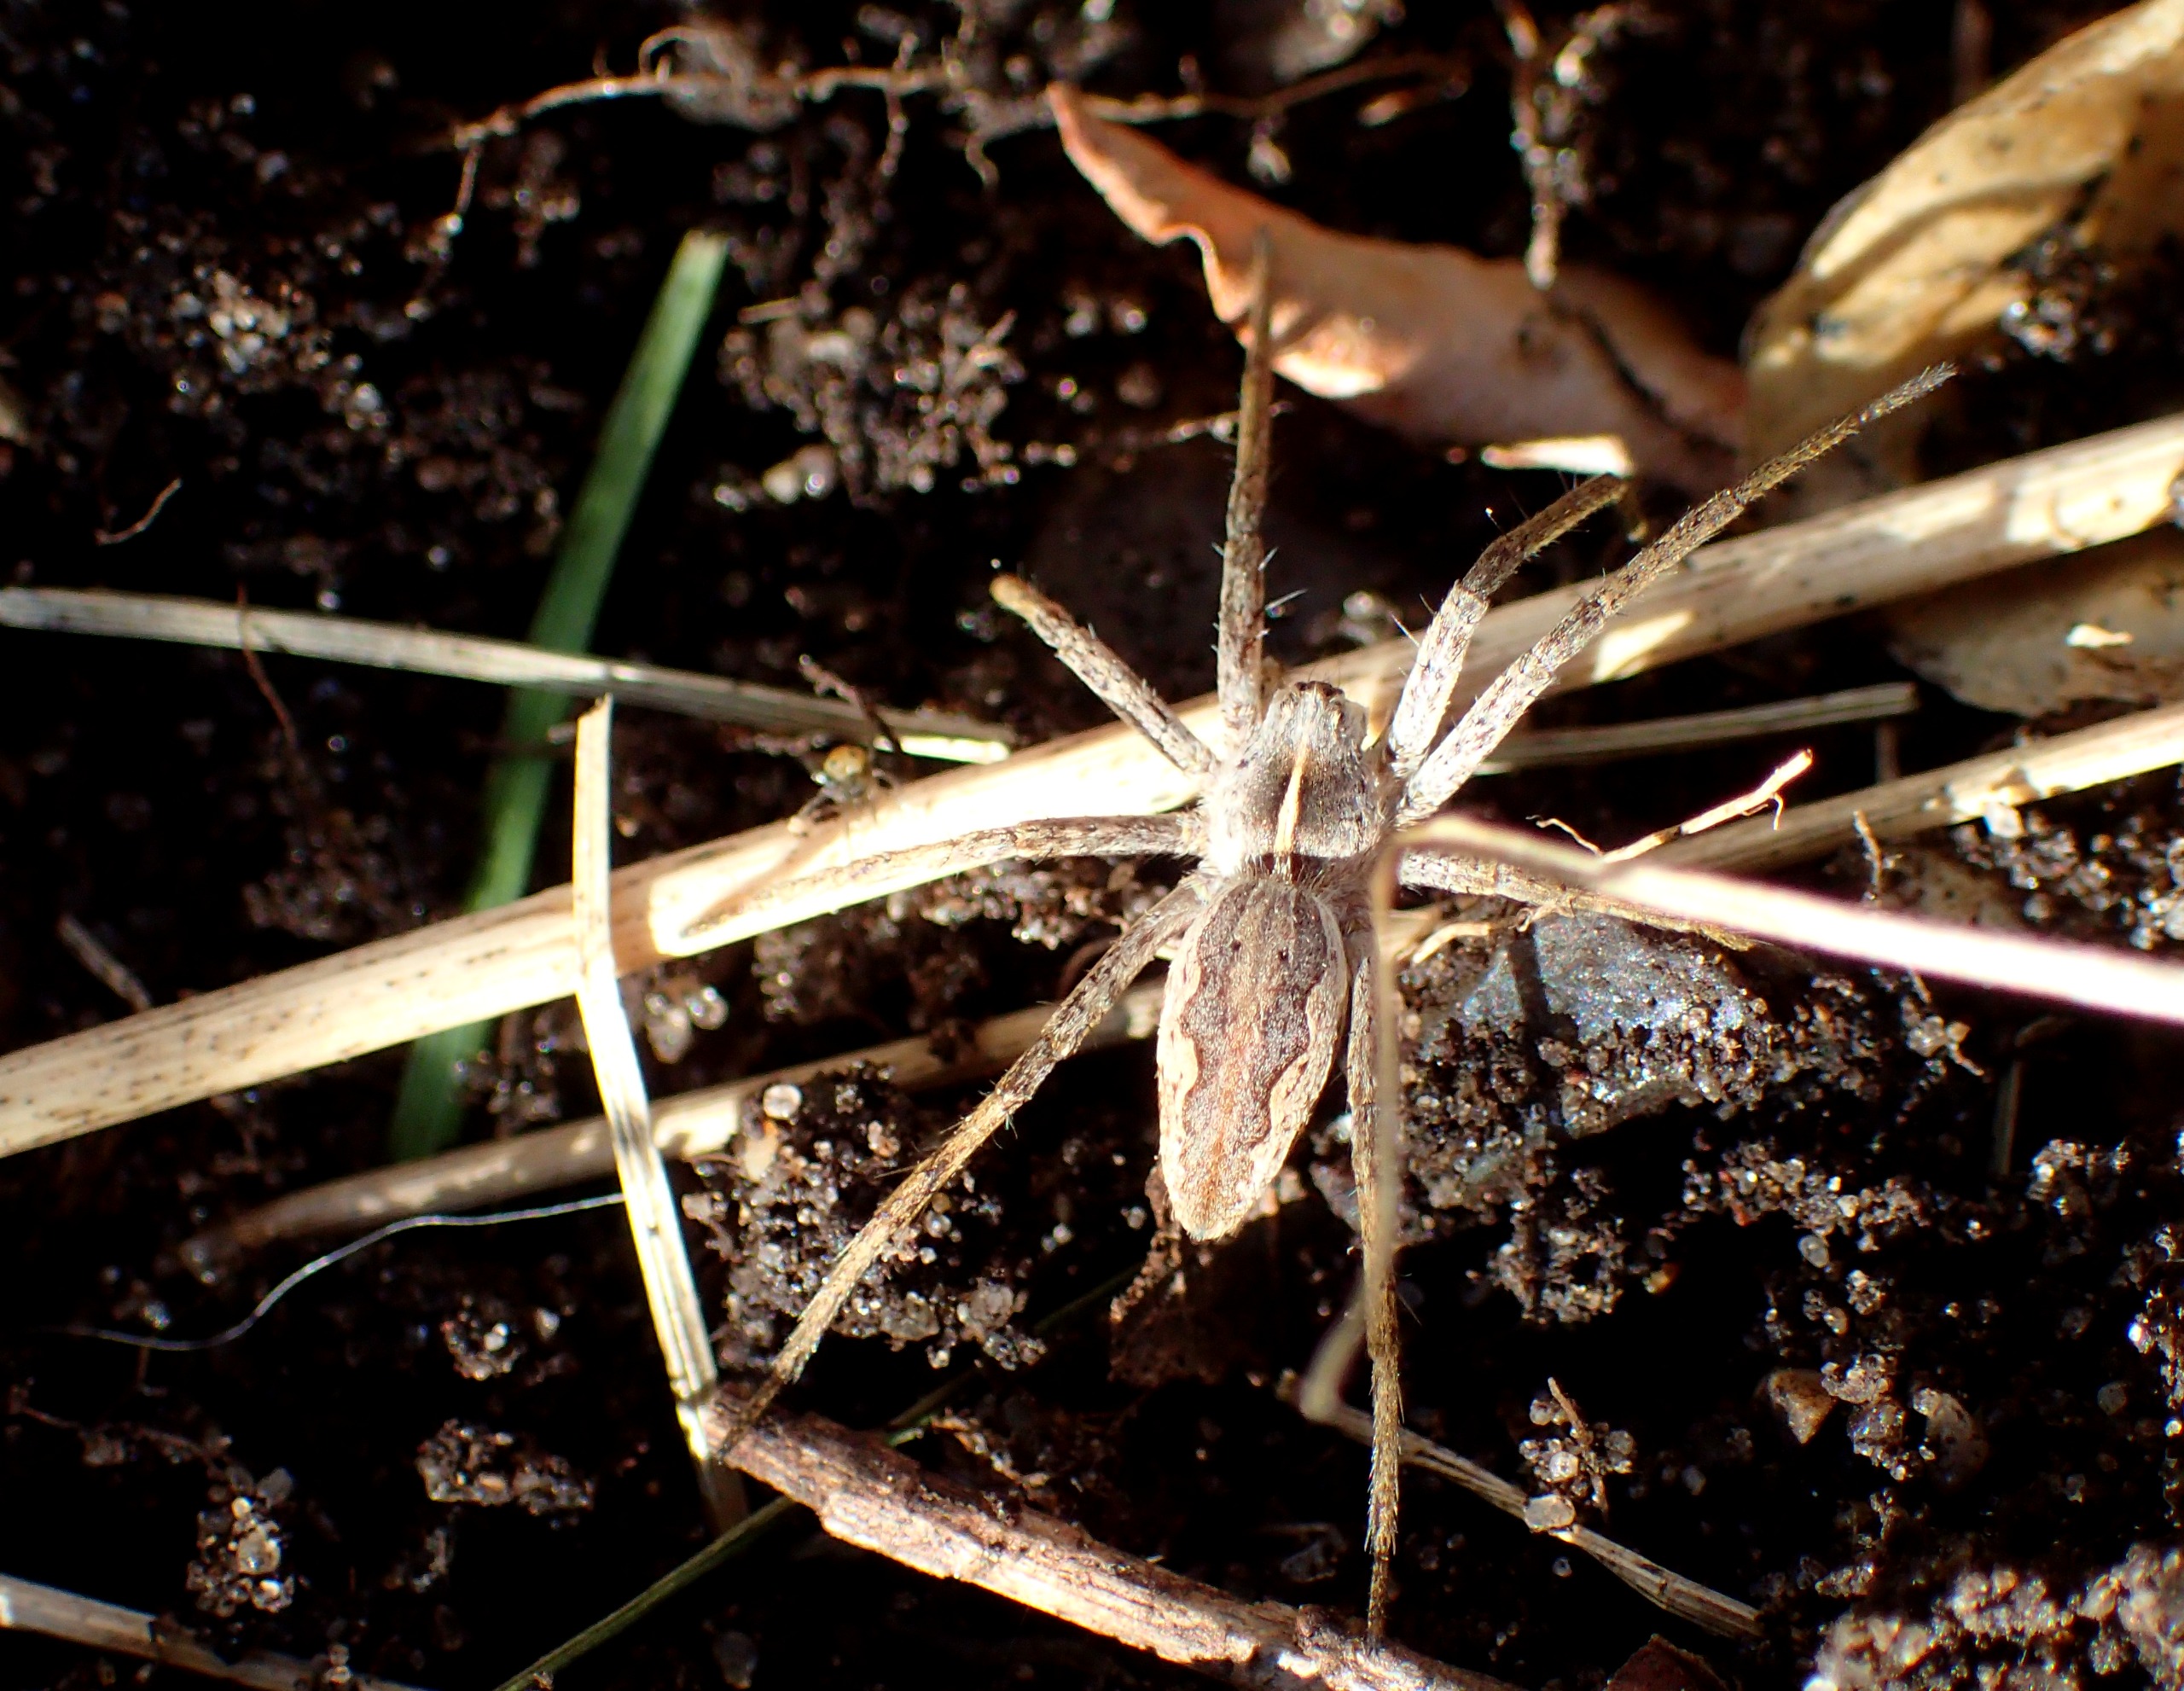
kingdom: Animalia
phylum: Arthropoda
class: Arachnida
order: Araneae
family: Pisauridae
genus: Pisaura
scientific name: Pisaura mirabilis
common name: Almindelig rovedderkop
